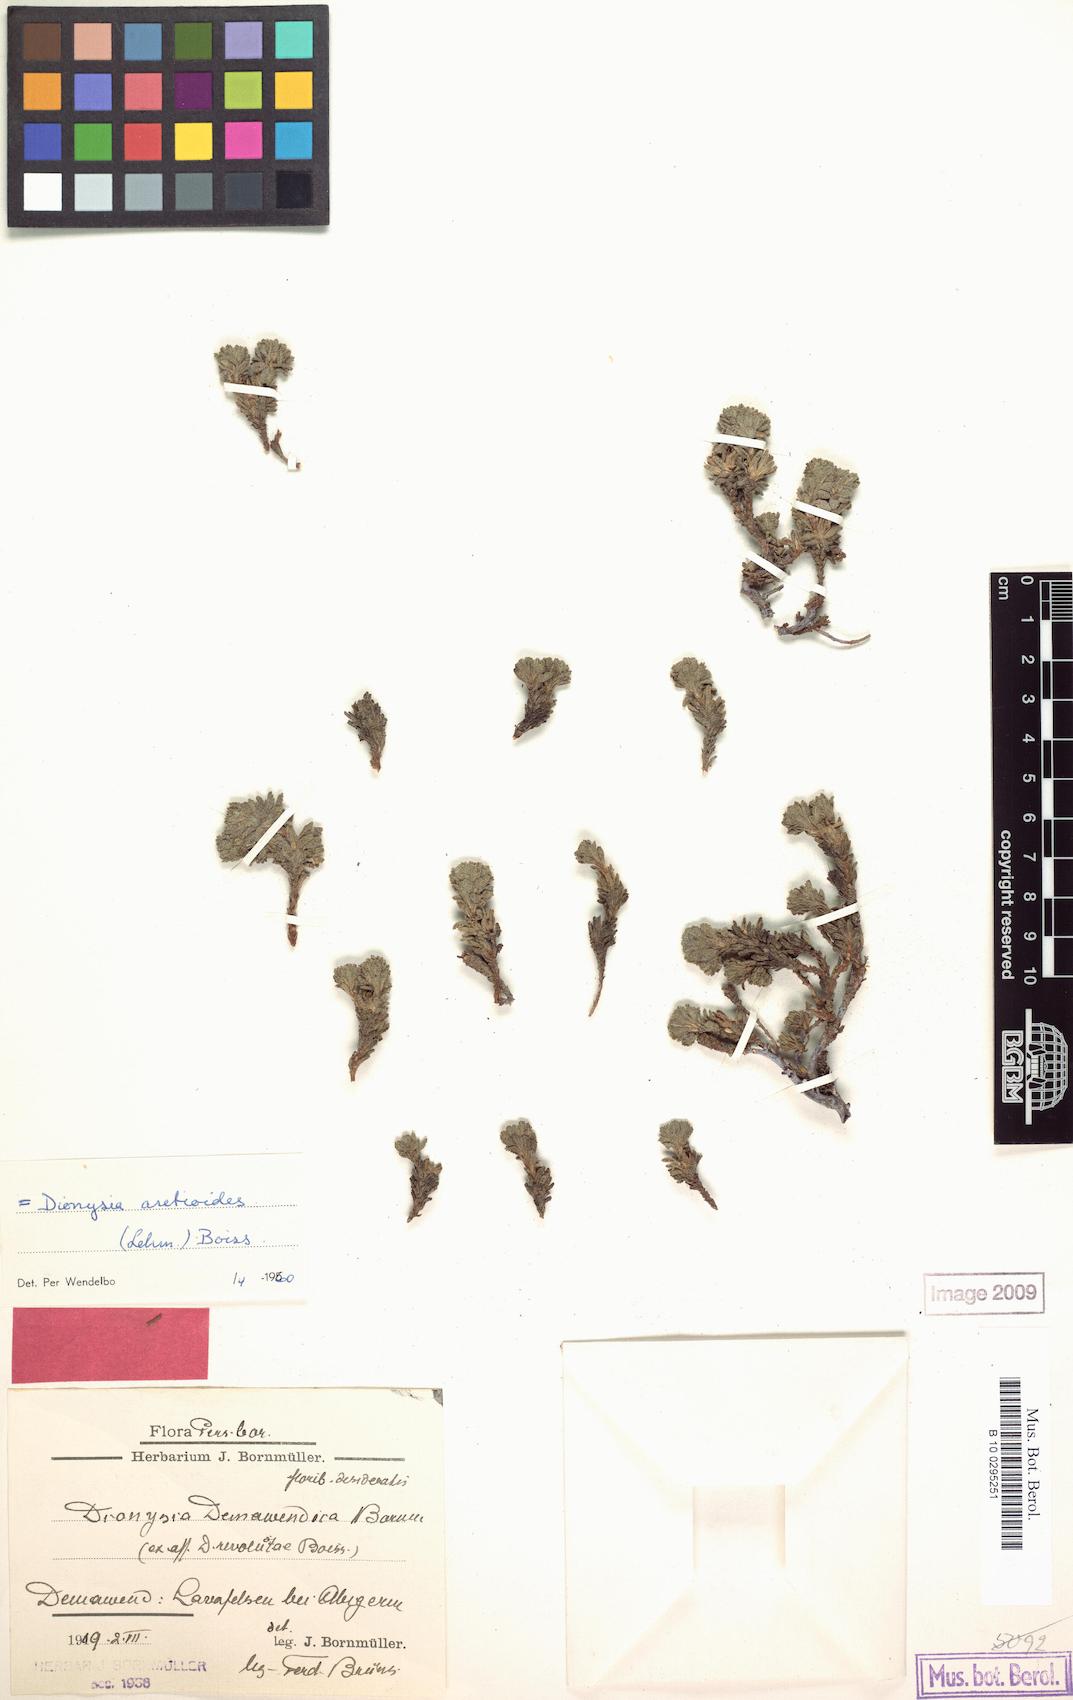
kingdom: Plantae
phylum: Tracheophyta
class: Magnoliopsida
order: Ericales
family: Primulaceae
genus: Dionysia
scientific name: Dionysia aretioides
